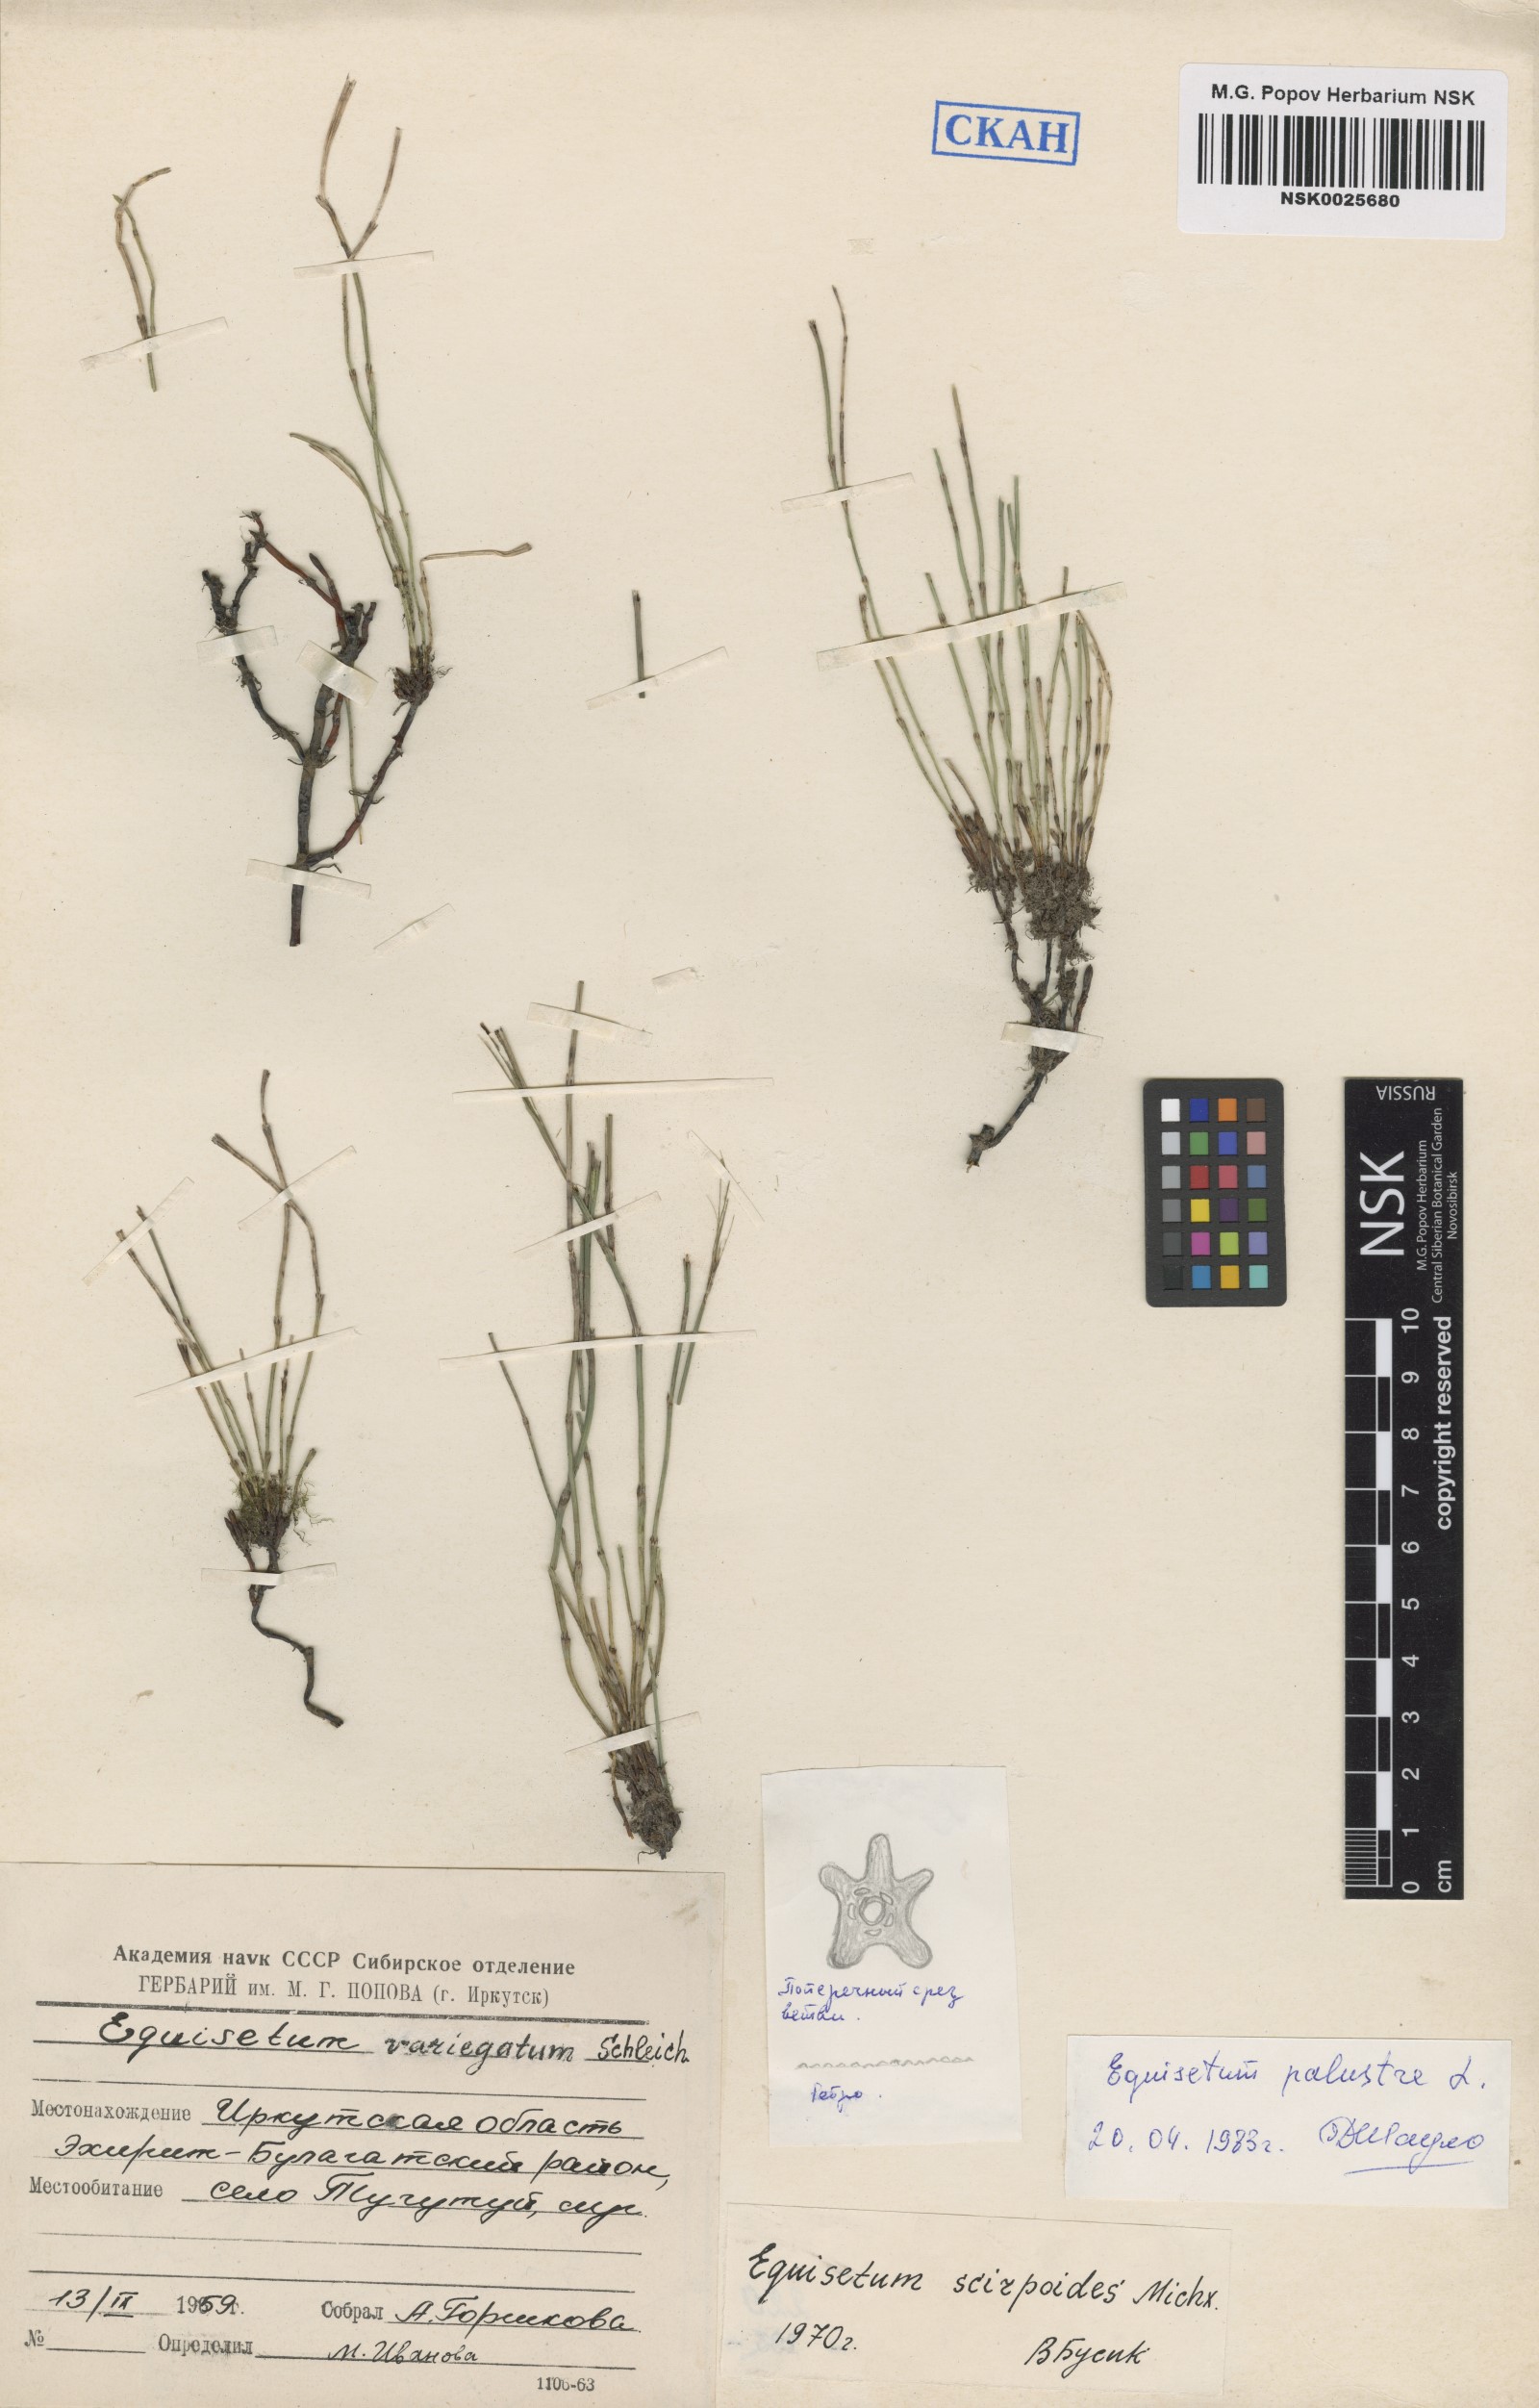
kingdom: Plantae
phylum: Tracheophyta
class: Polypodiopsida
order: Equisetales
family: Equisetaceae
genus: Equisetum
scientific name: Equisetum palustre
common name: Marsh horsetail
